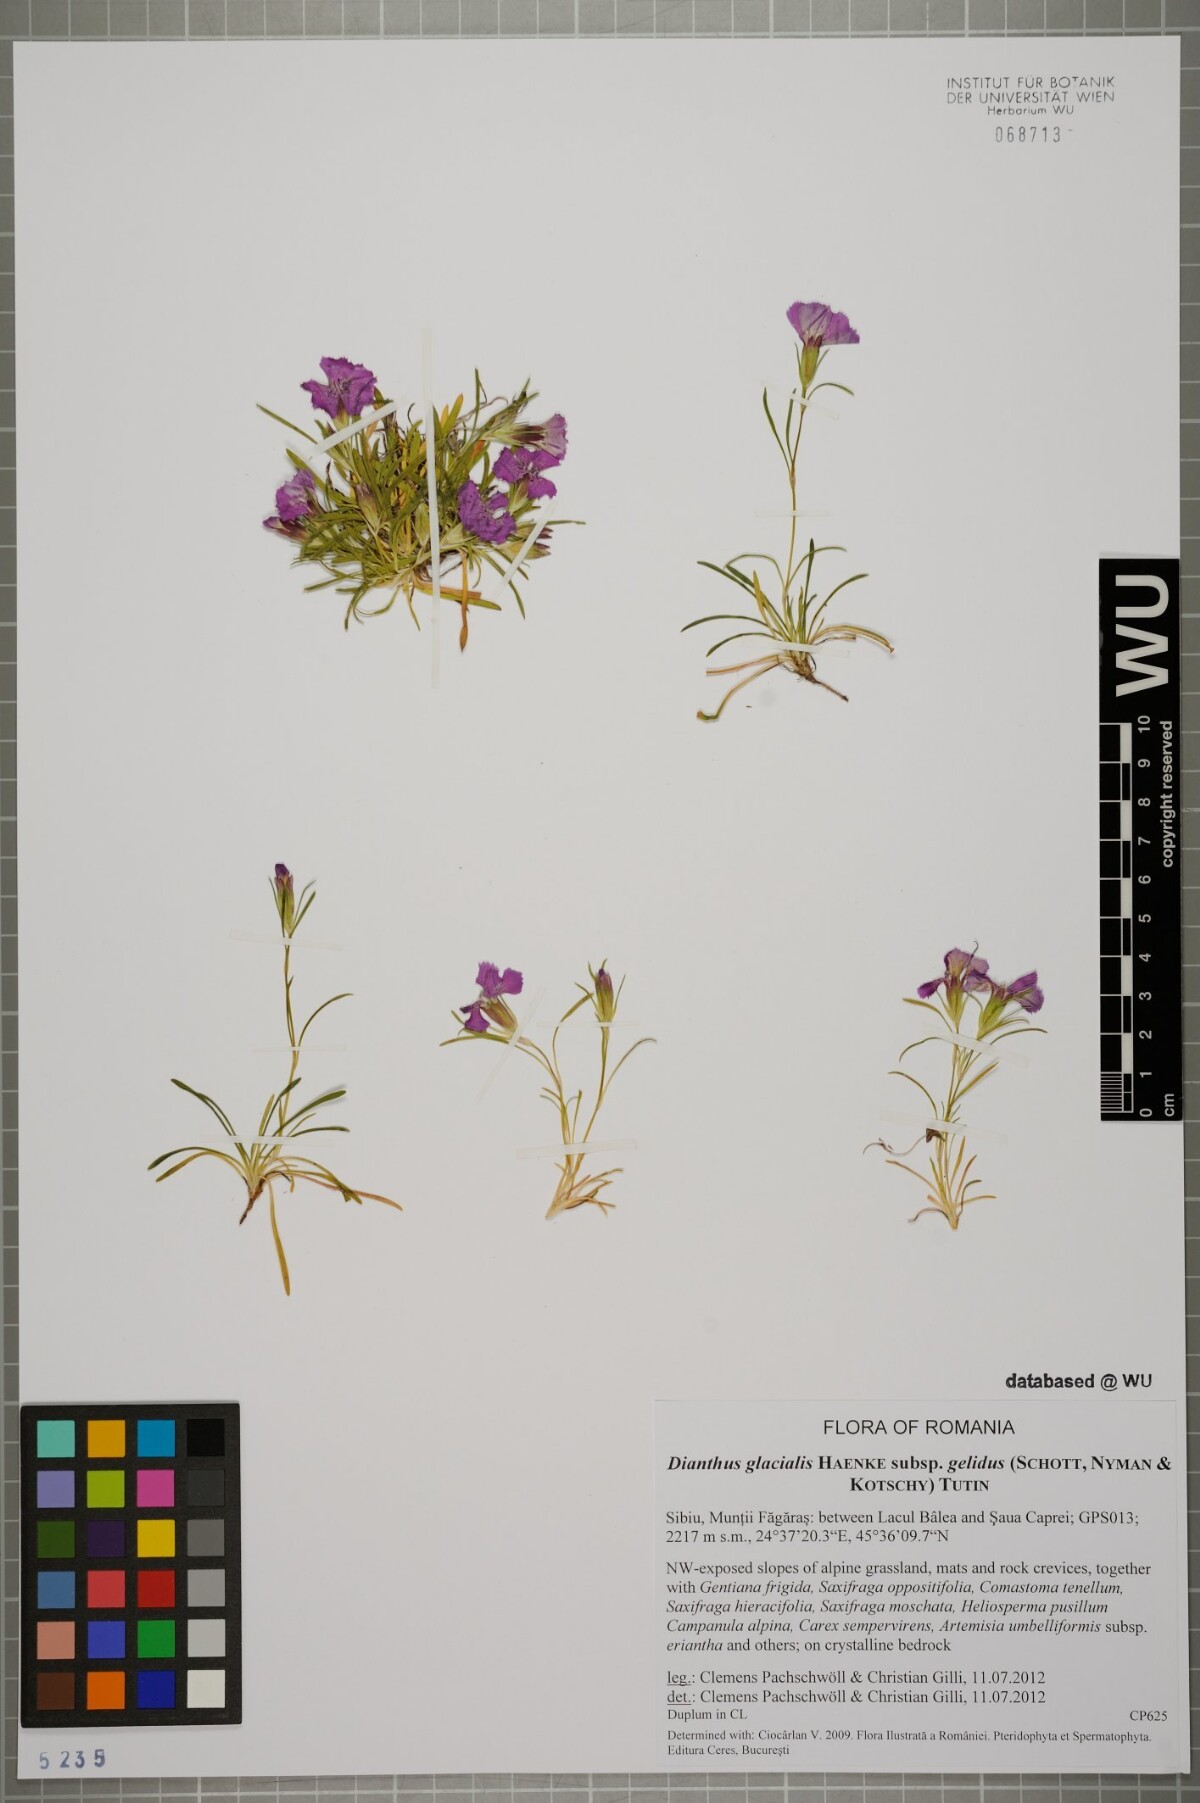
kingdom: Plantae
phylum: Tracheophyta
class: Magnoliopsida
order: Caryophyllales
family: Caryophyllaceae
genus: Dianthus
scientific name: Dianthus glacialis
